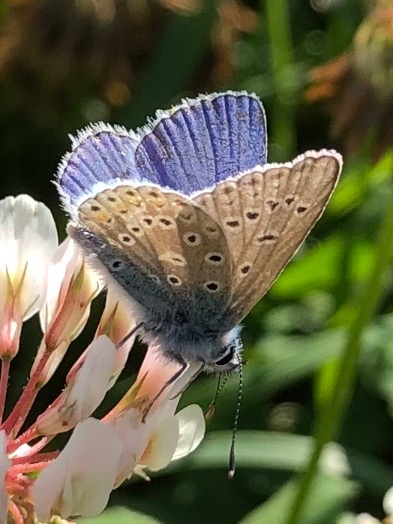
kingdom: Animalia
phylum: Arthropoda
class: Insecta
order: Lepidoptera
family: Lycaenidae
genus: Polyommatus
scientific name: Polyommatus icarus
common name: Almindelig blåfugl
